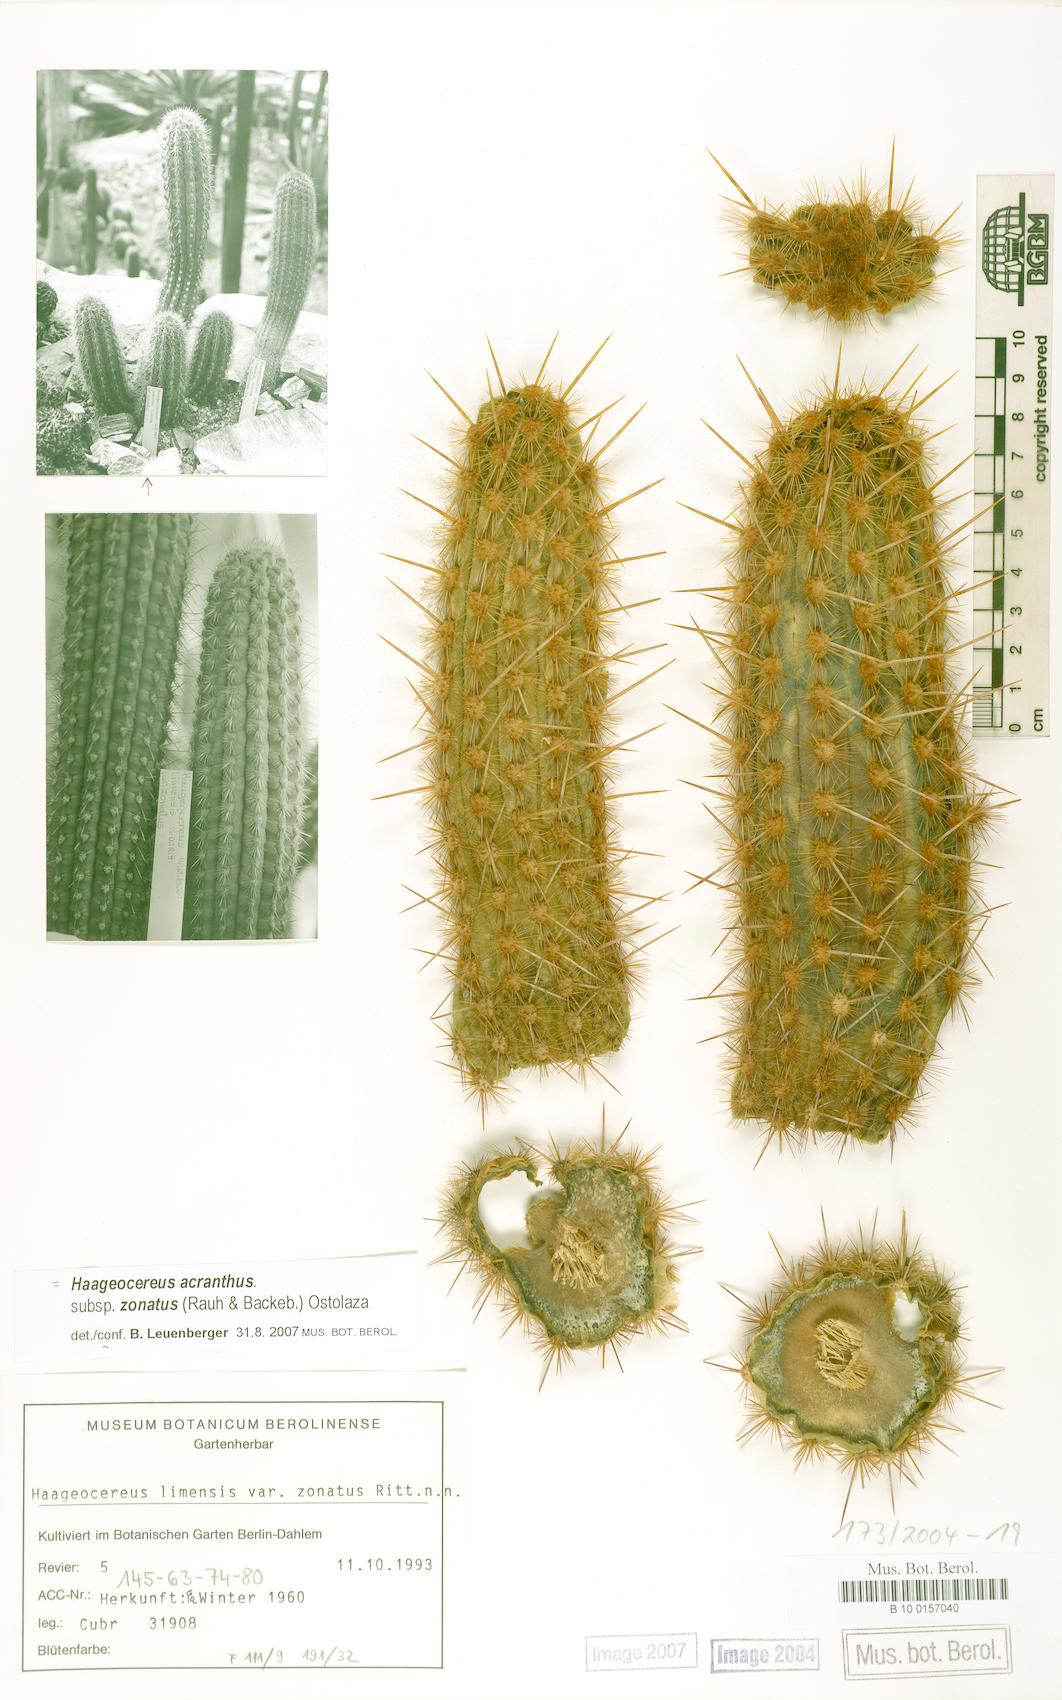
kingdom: Plantae
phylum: Tracheophyta
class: Magnoliopsida
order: Caryophyllales
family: Cactaceae
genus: Haageocereus
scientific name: Haageocereus acranthus
